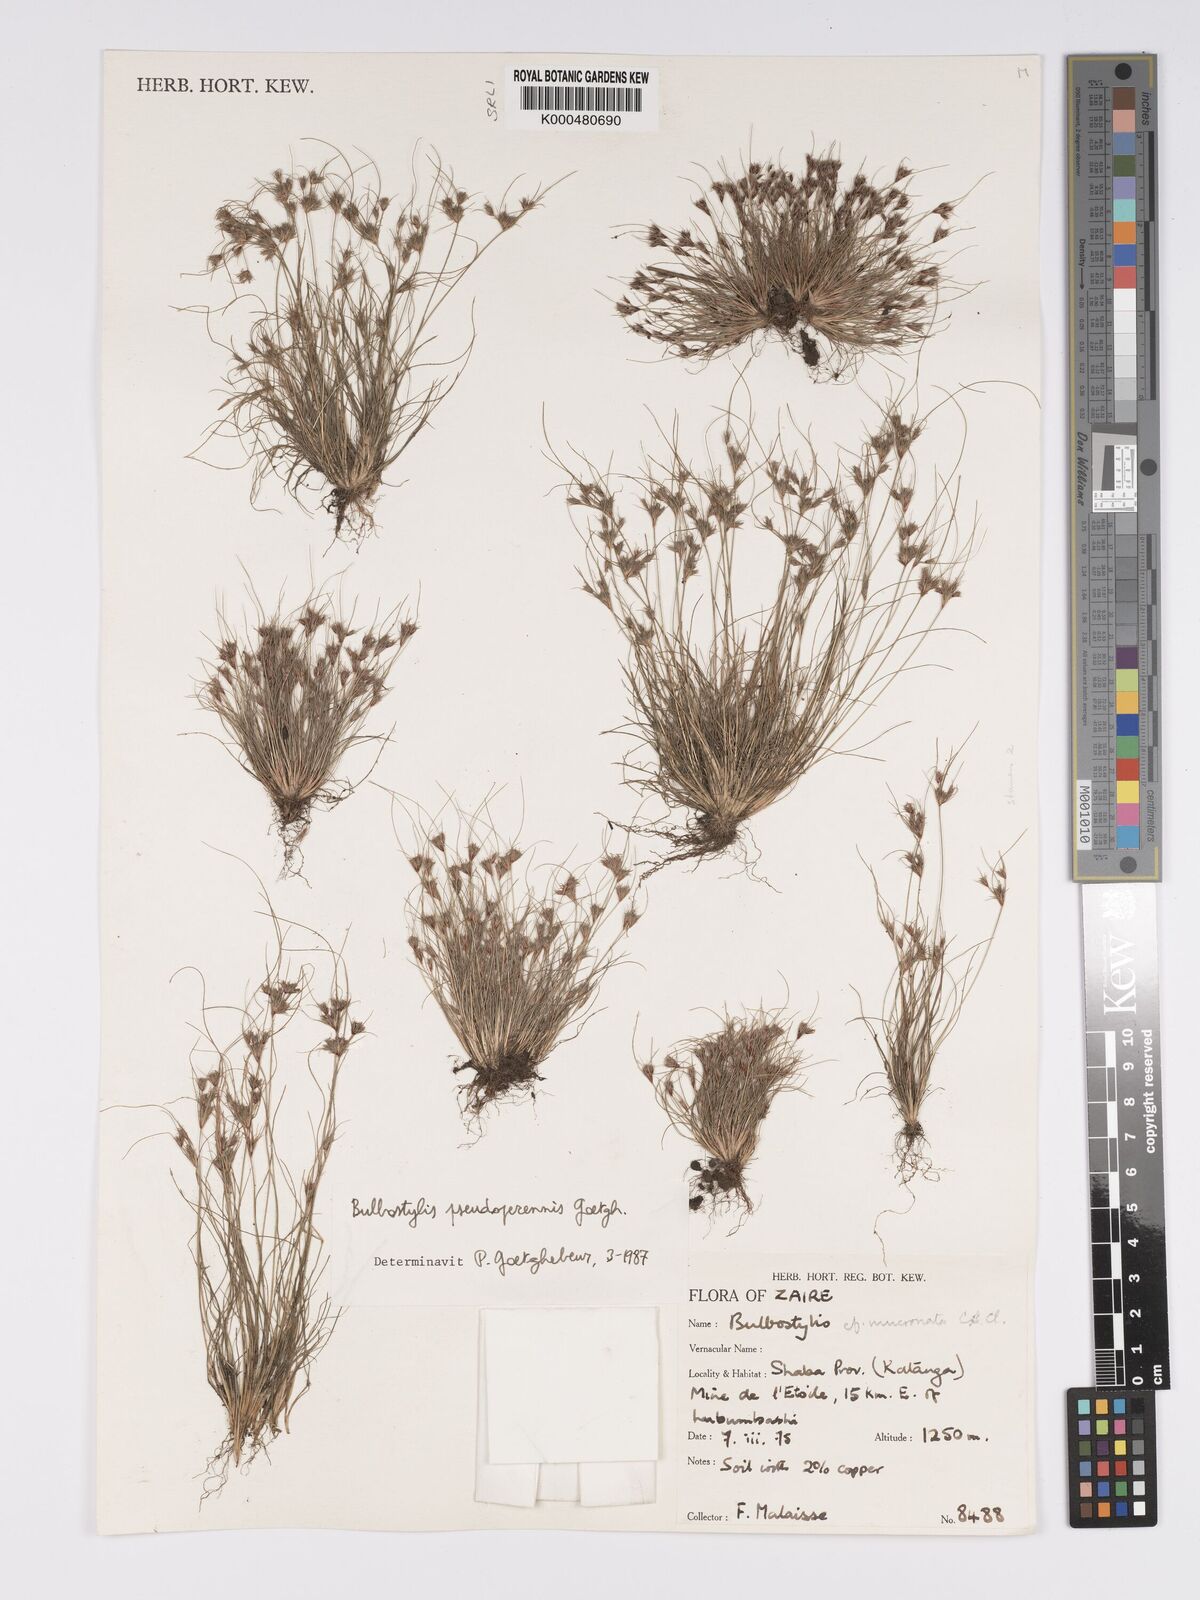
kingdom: Plantae
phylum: Tracheophyta
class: Liliopsida
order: Poales
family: Cyperaceae
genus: Bulbostylis
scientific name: Bulbostylis abbreviata
